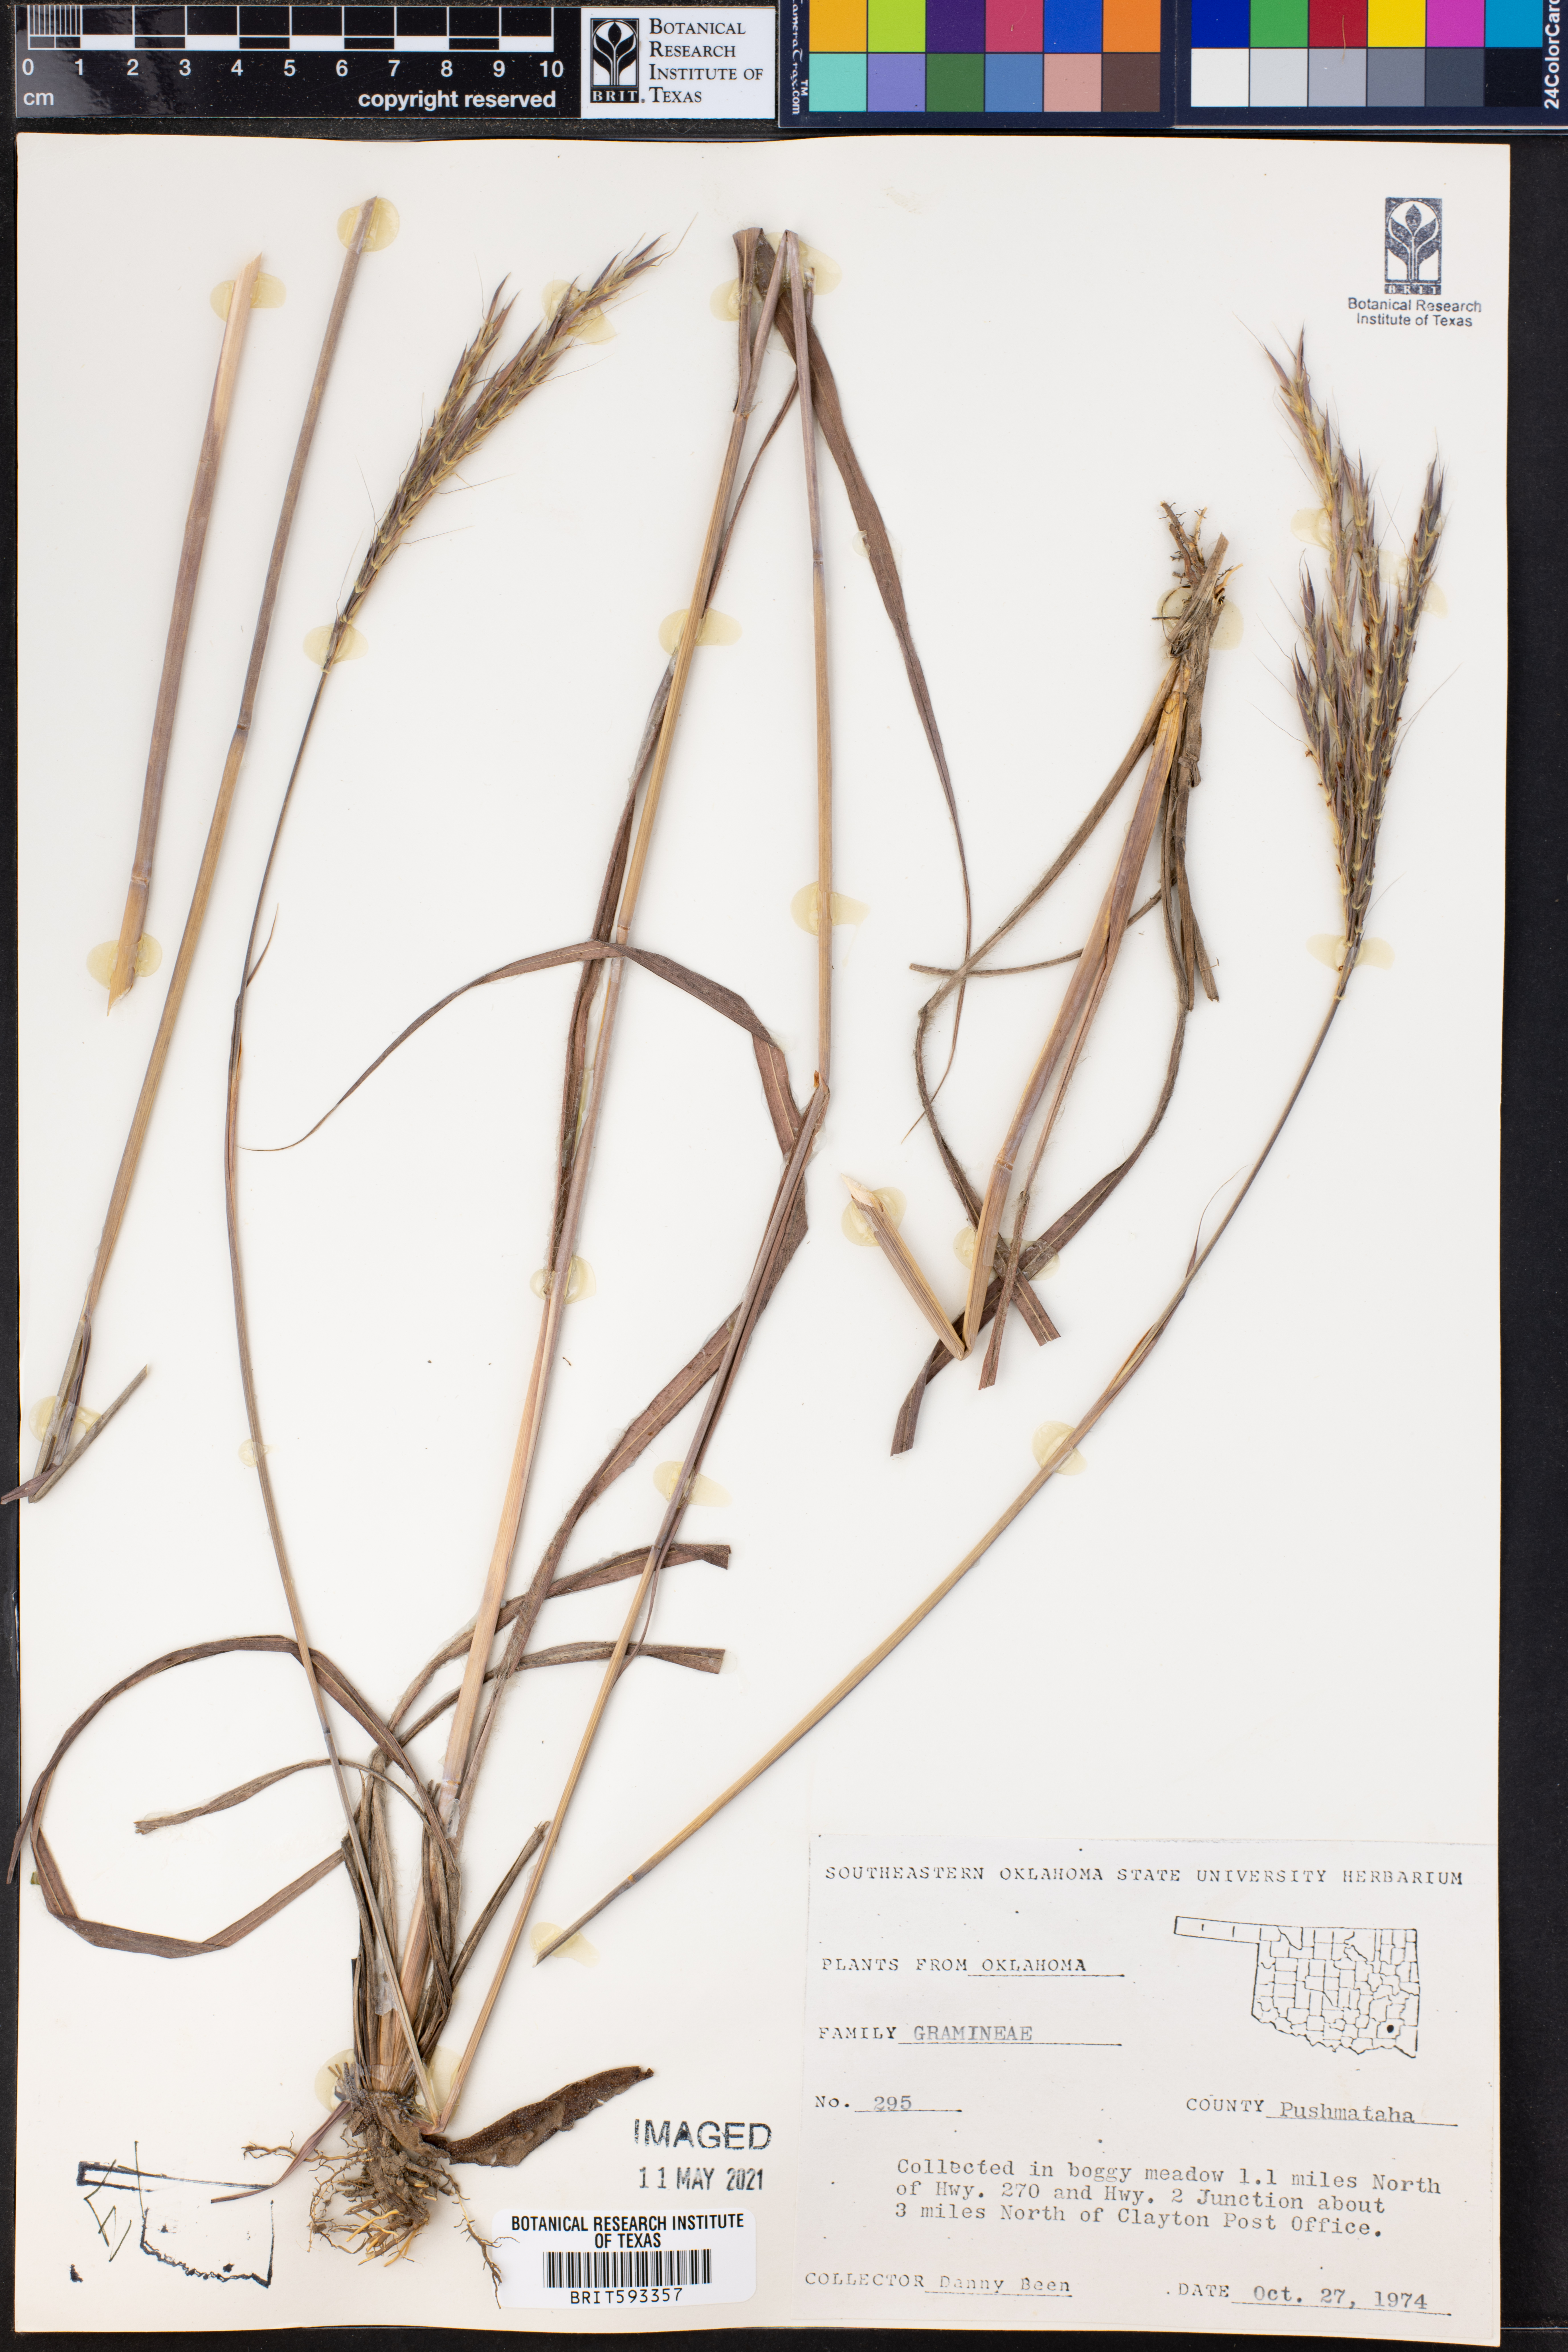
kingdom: Plantae
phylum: Tracheophyta
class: Liliopsida
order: Poales
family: Poaceae
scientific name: Poaceae
